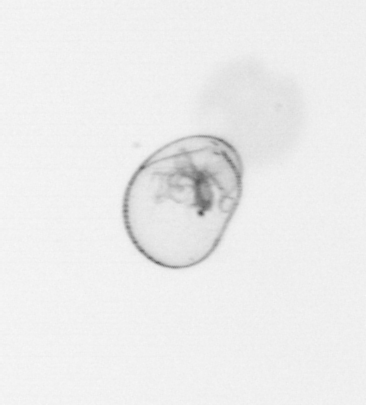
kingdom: Chromista
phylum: Myzozoa
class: Dinophyceae
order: Noctilucales
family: Noctilucaceae
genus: Noctiluca
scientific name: Noctiluca scintillans
